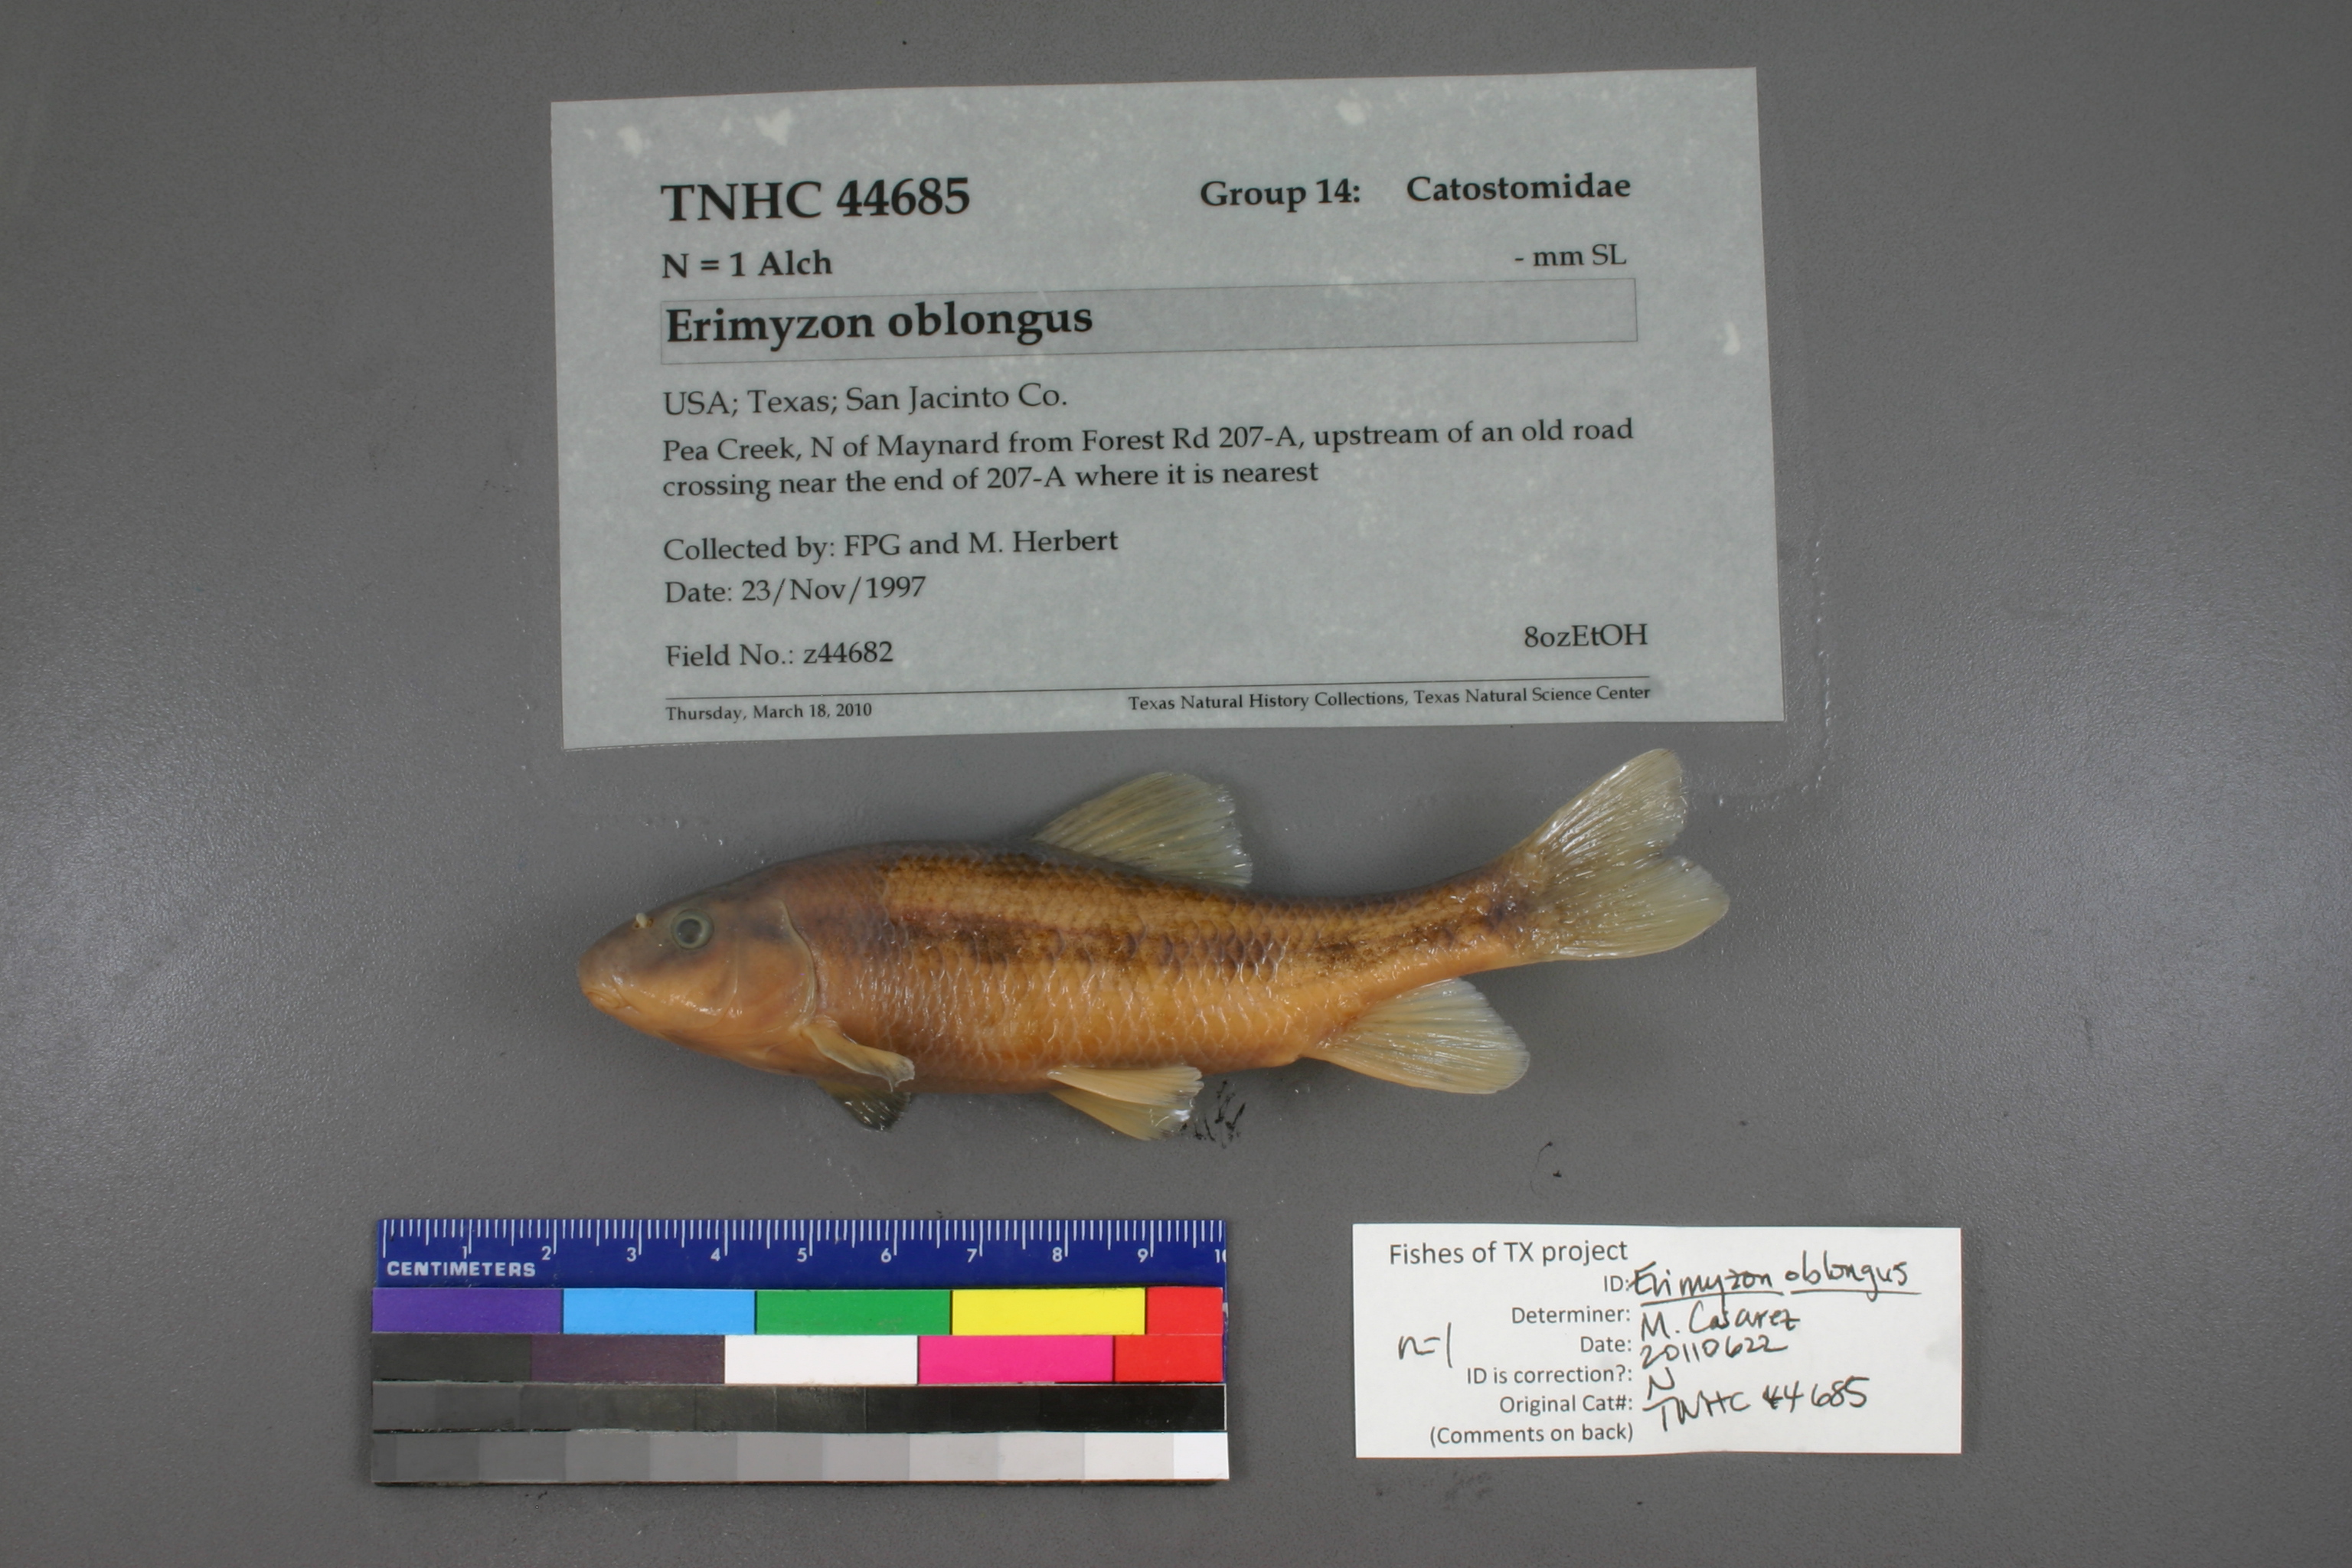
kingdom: Animalia
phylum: Chordata
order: Cypriniformes
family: Catostomidae
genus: Erimyzon
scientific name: Erimyzon oblongus
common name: Eastern creek chubsucker
